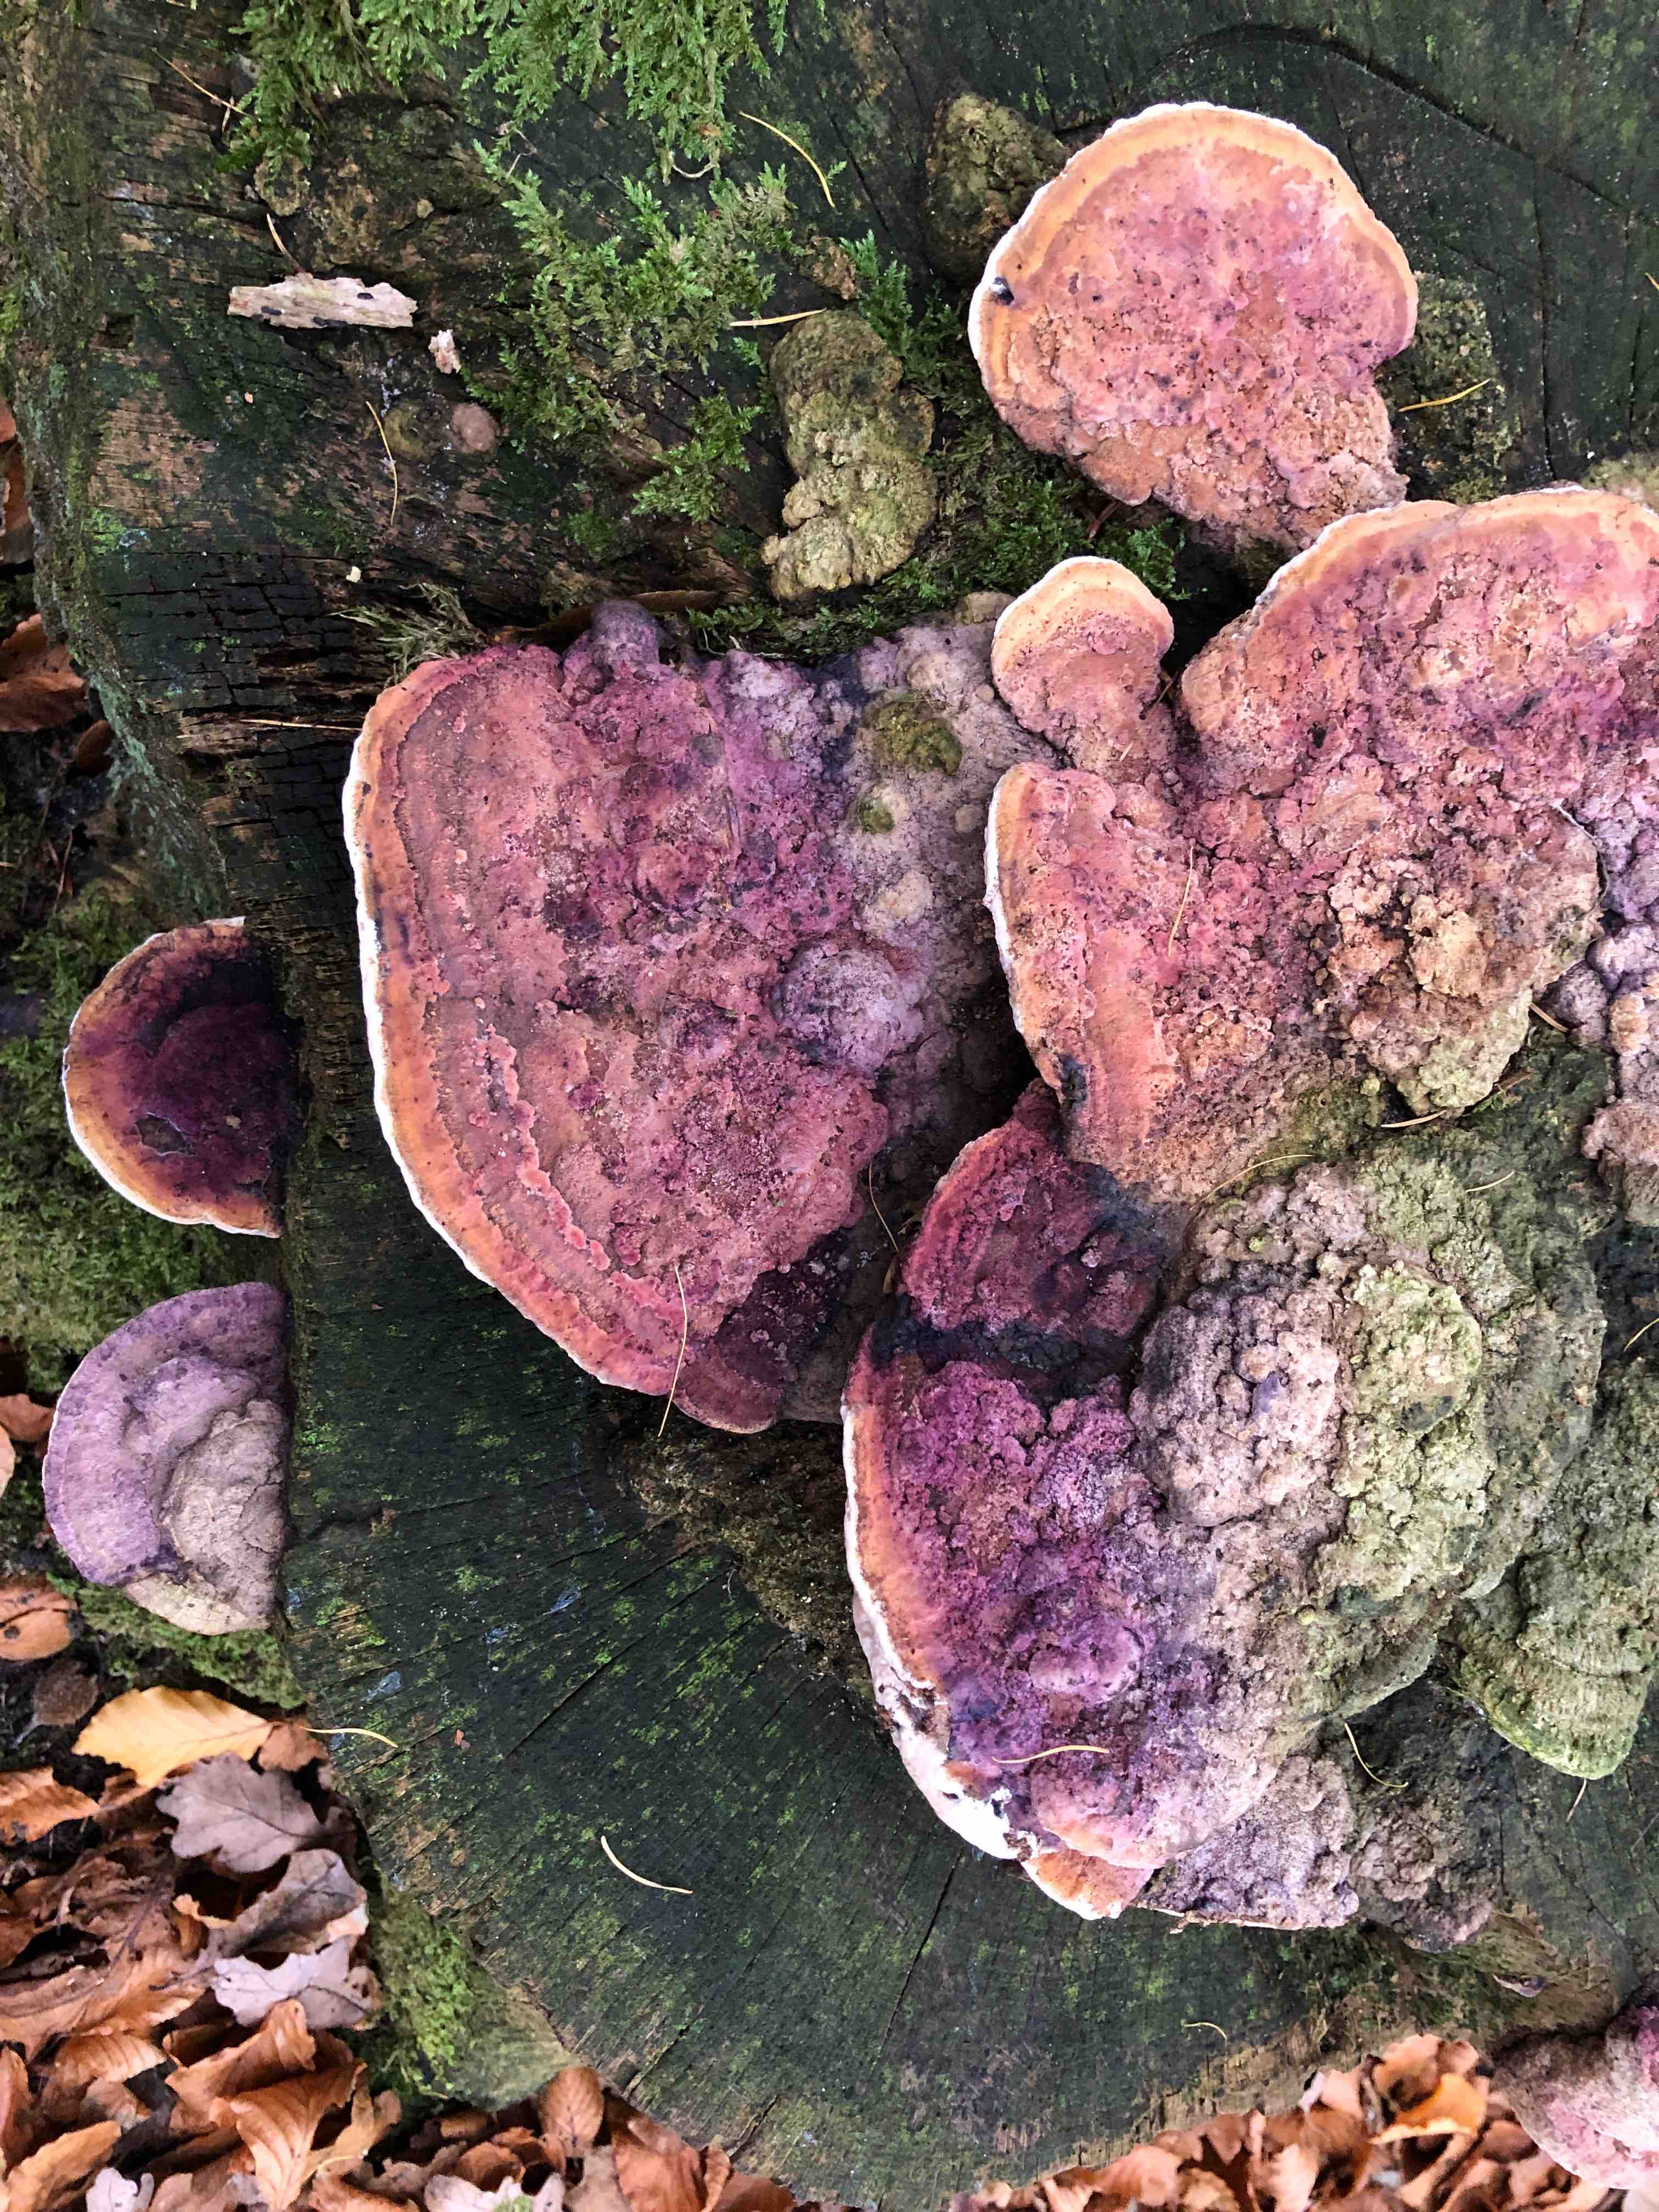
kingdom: Fungi
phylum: Basidiomycota
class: Agaricomycetes
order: Polyporales
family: Fomitopsidaceae
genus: Daedalea
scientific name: Daedalea quercina
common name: ege-labyrintsvamp
